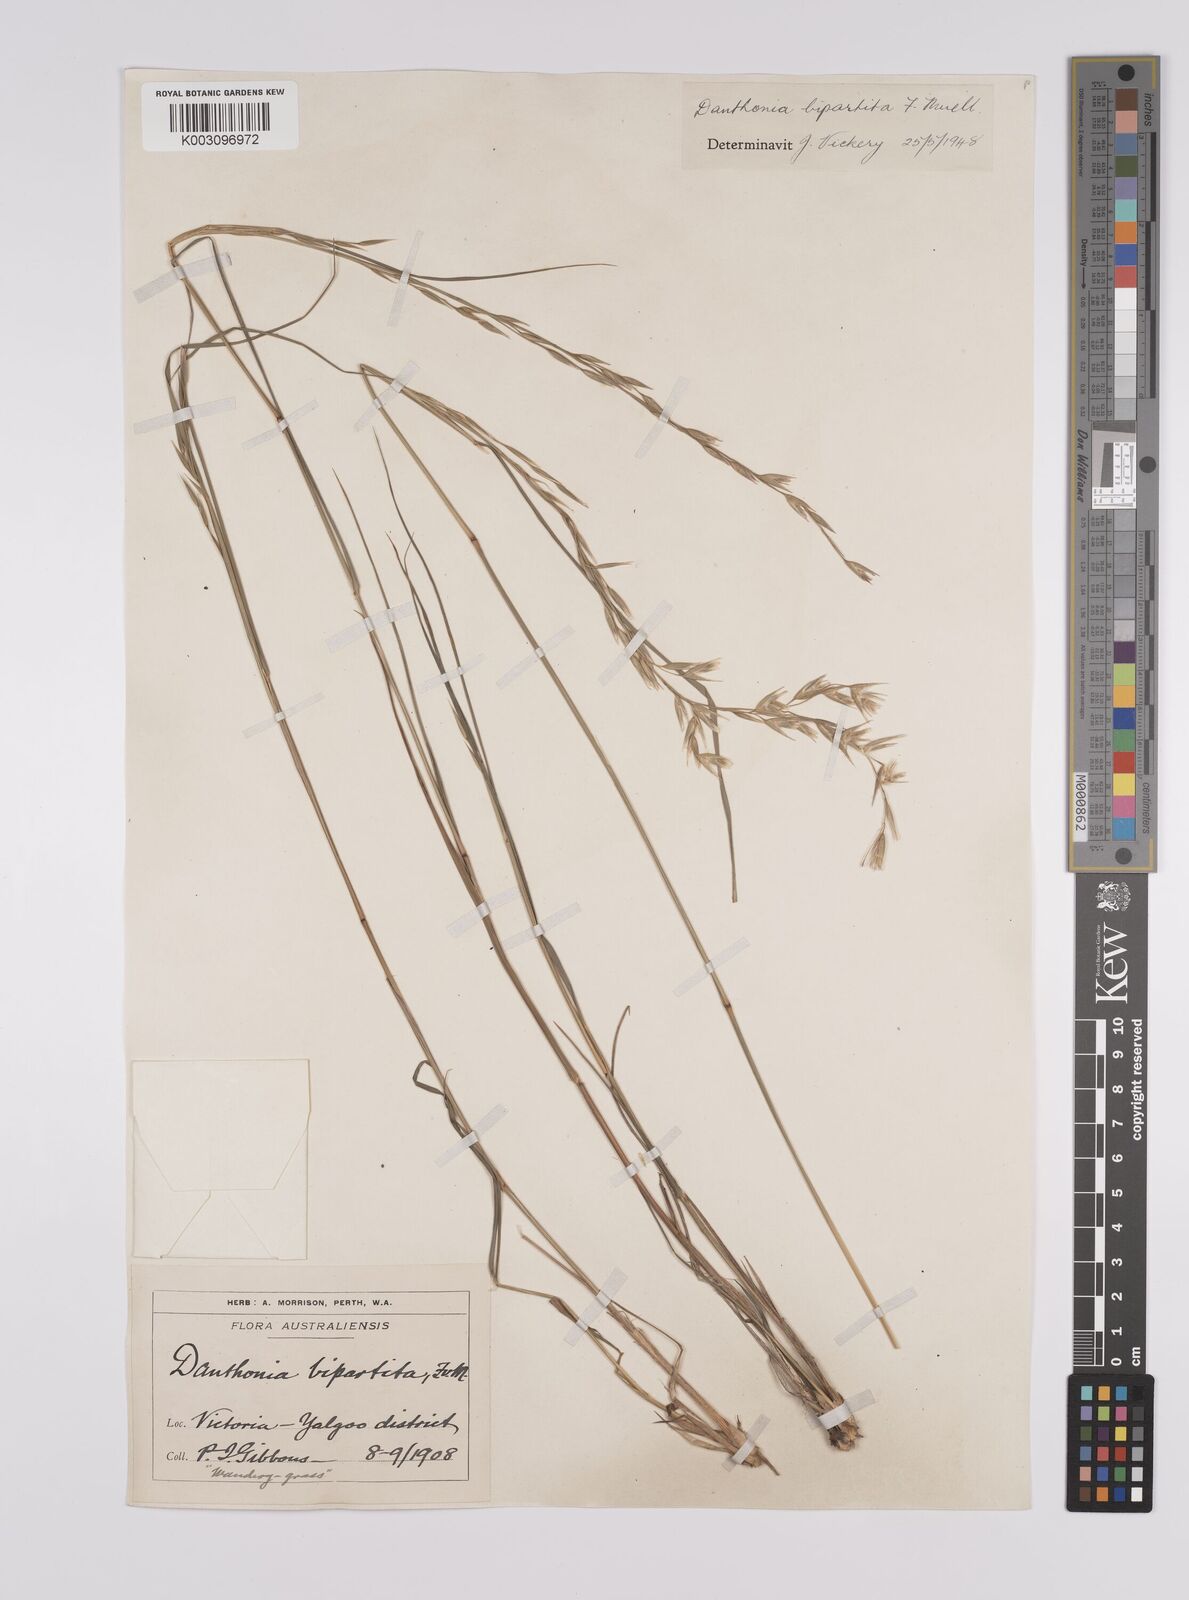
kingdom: Plantae
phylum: Tracheophyta
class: Liliopsida
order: Poales
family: Poaceae
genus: Monachather
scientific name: Monachather paradoxus
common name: Bandicoot grass
